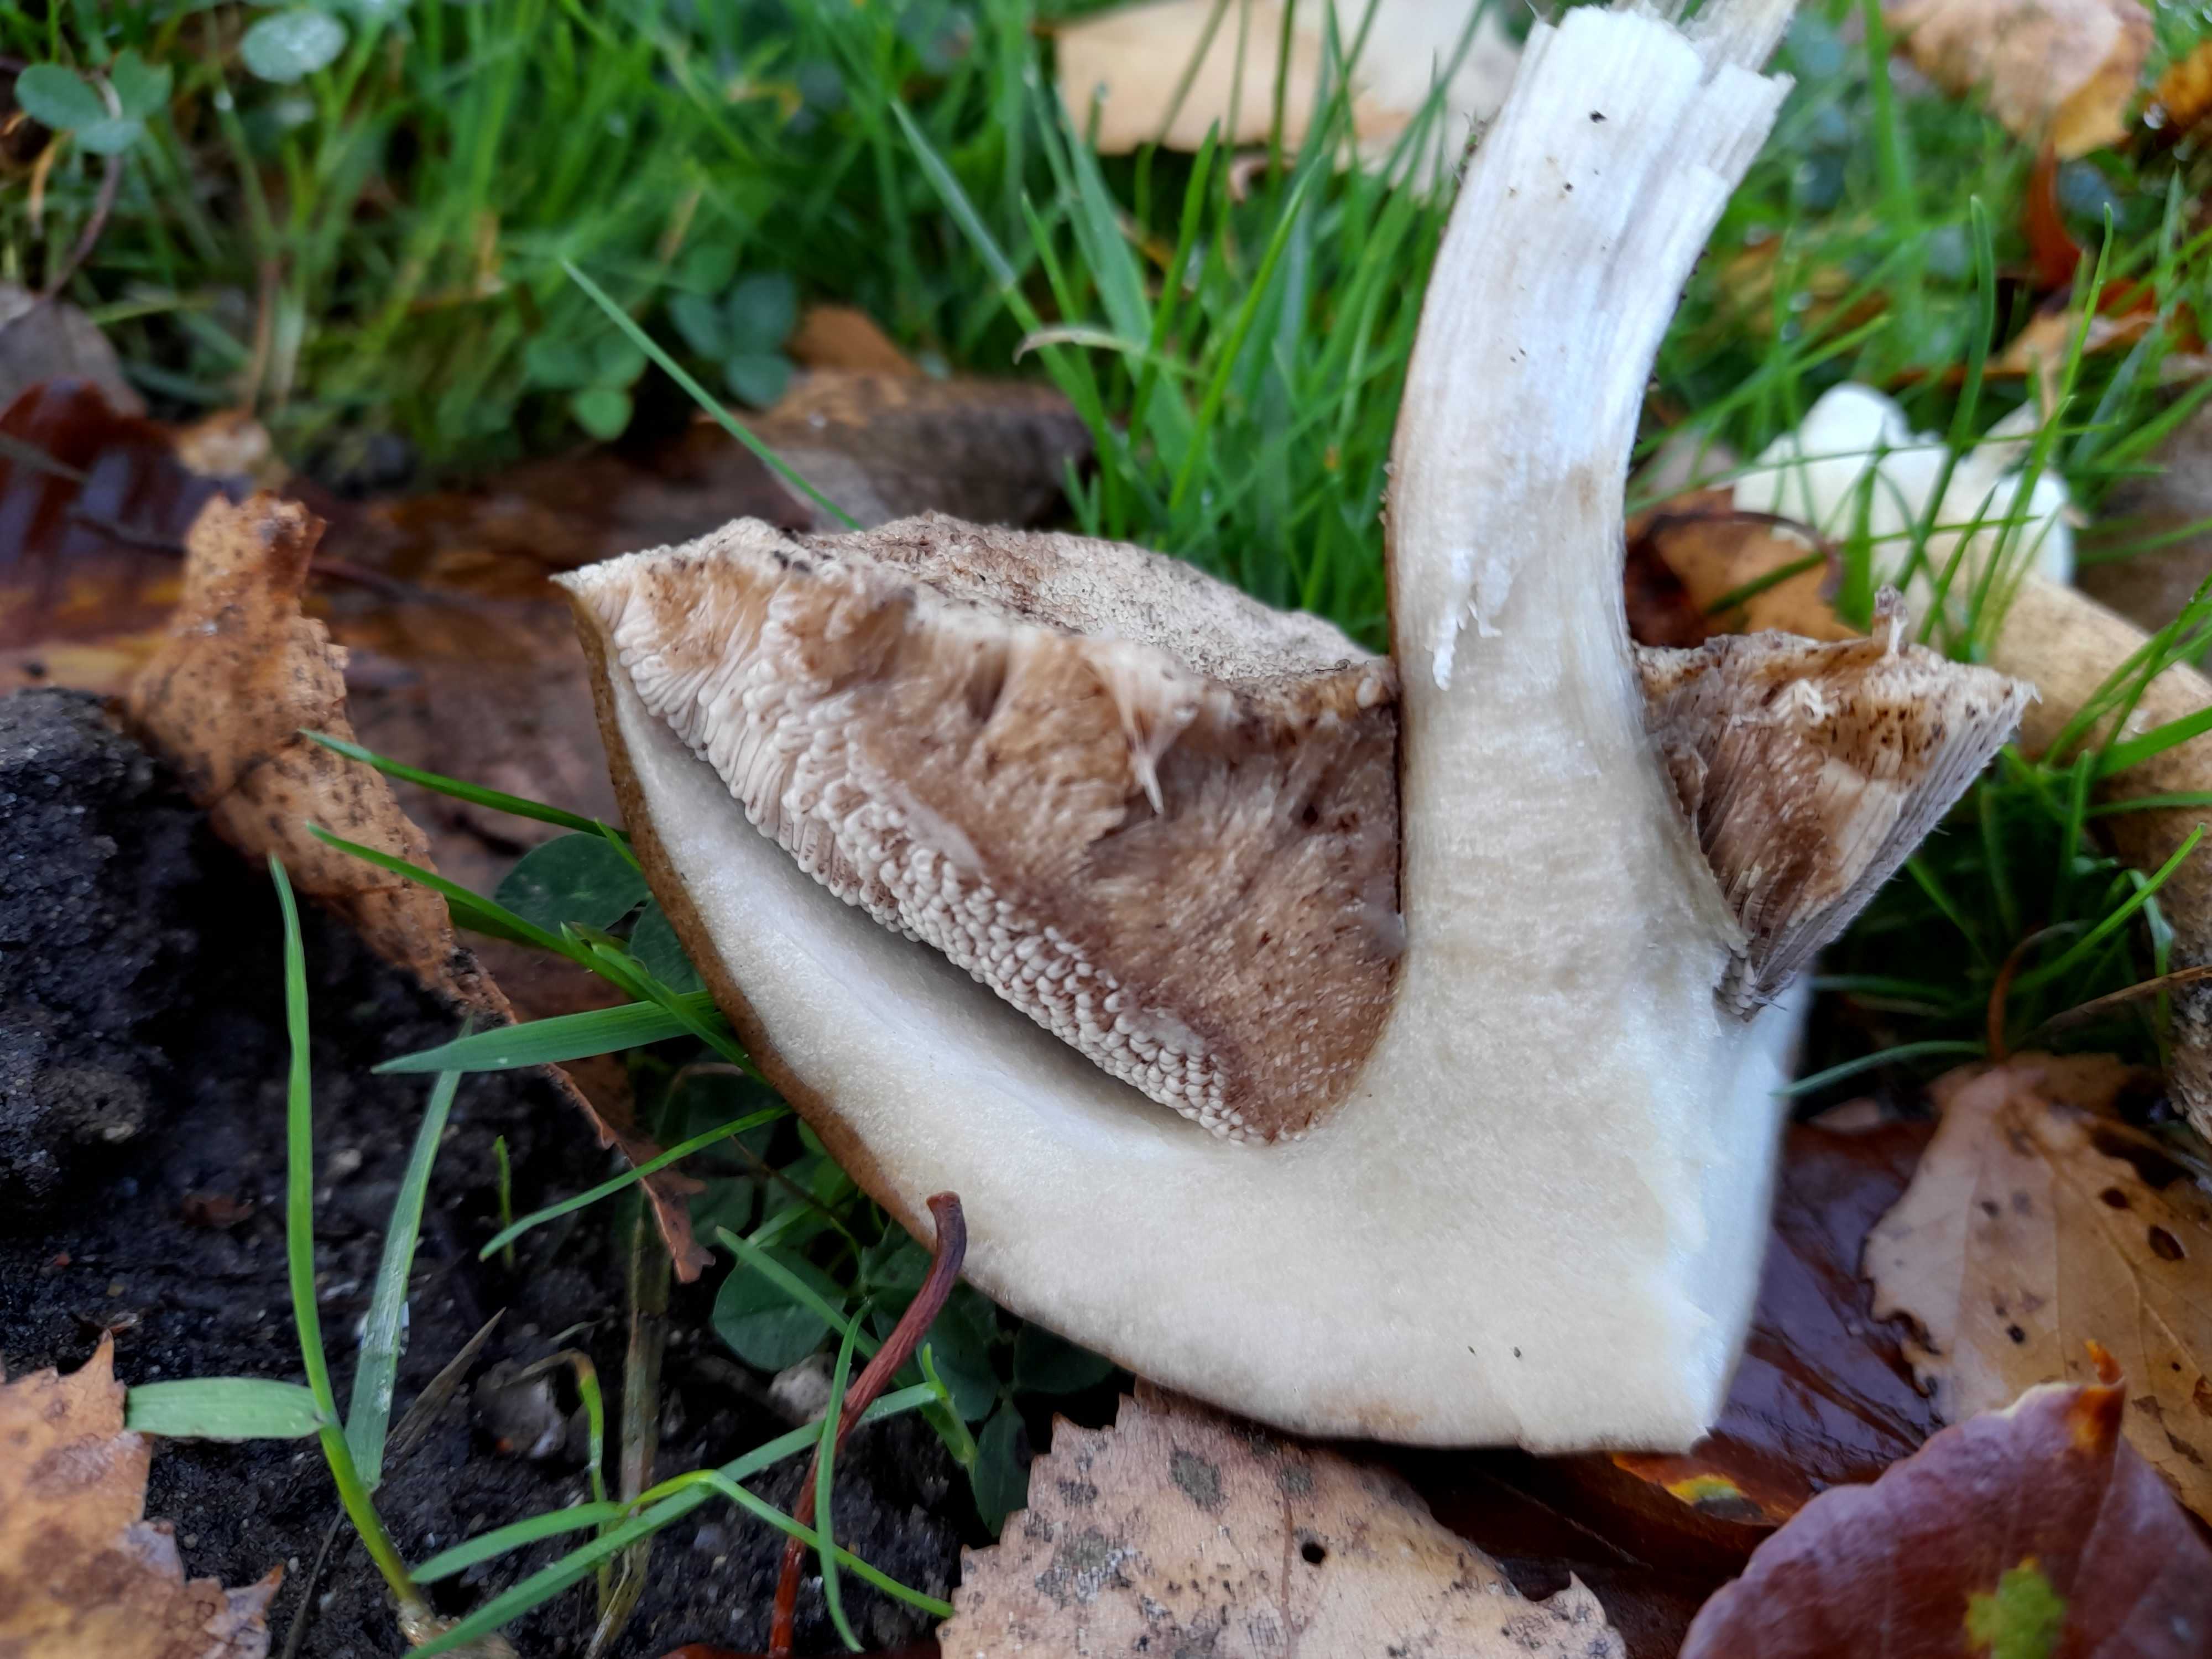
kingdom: Fungi
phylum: Basidiomycota
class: Agaricomycetes
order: Boletales
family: Boletaceae
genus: Leccinum
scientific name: Leccinum
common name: skælrørhat
